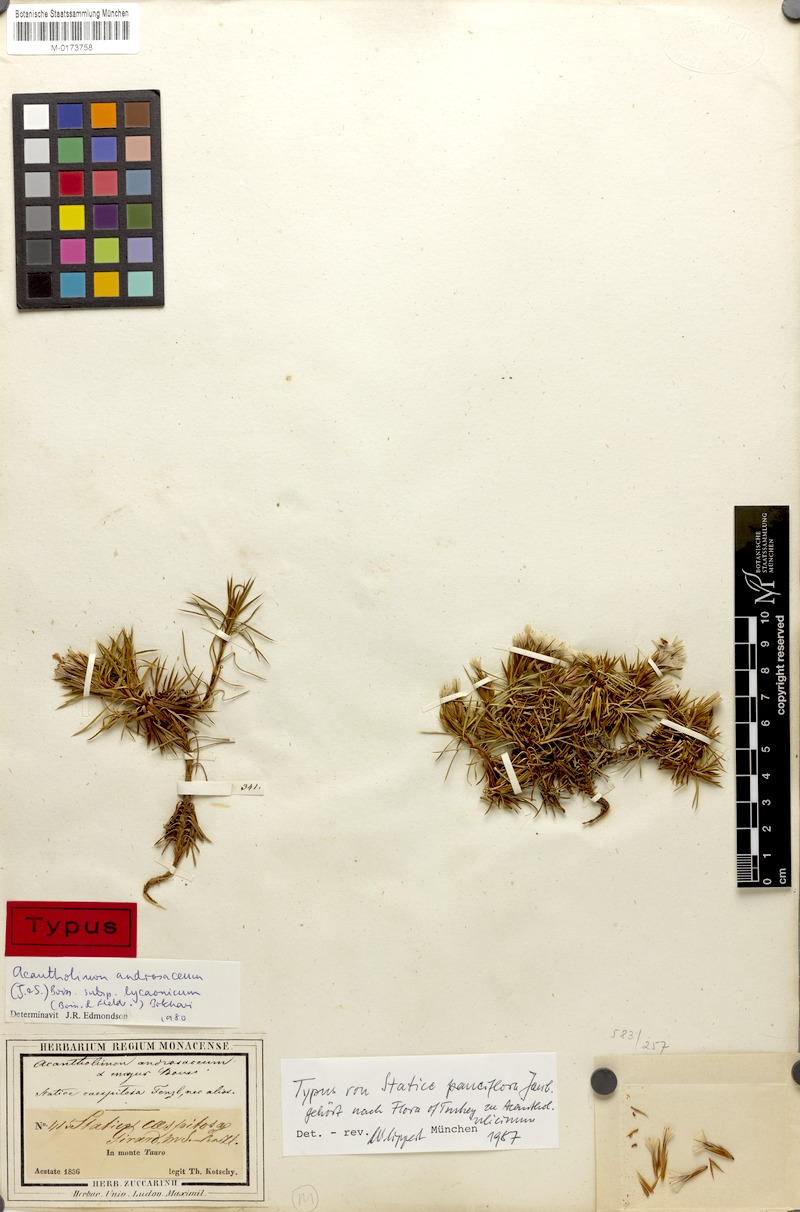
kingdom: Plantae
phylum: Tracheophyta
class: Magnoliopsida
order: Caryophyllales
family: Plumbaginaceae
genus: Acantholimon
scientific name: Acantholimon ulicinum
